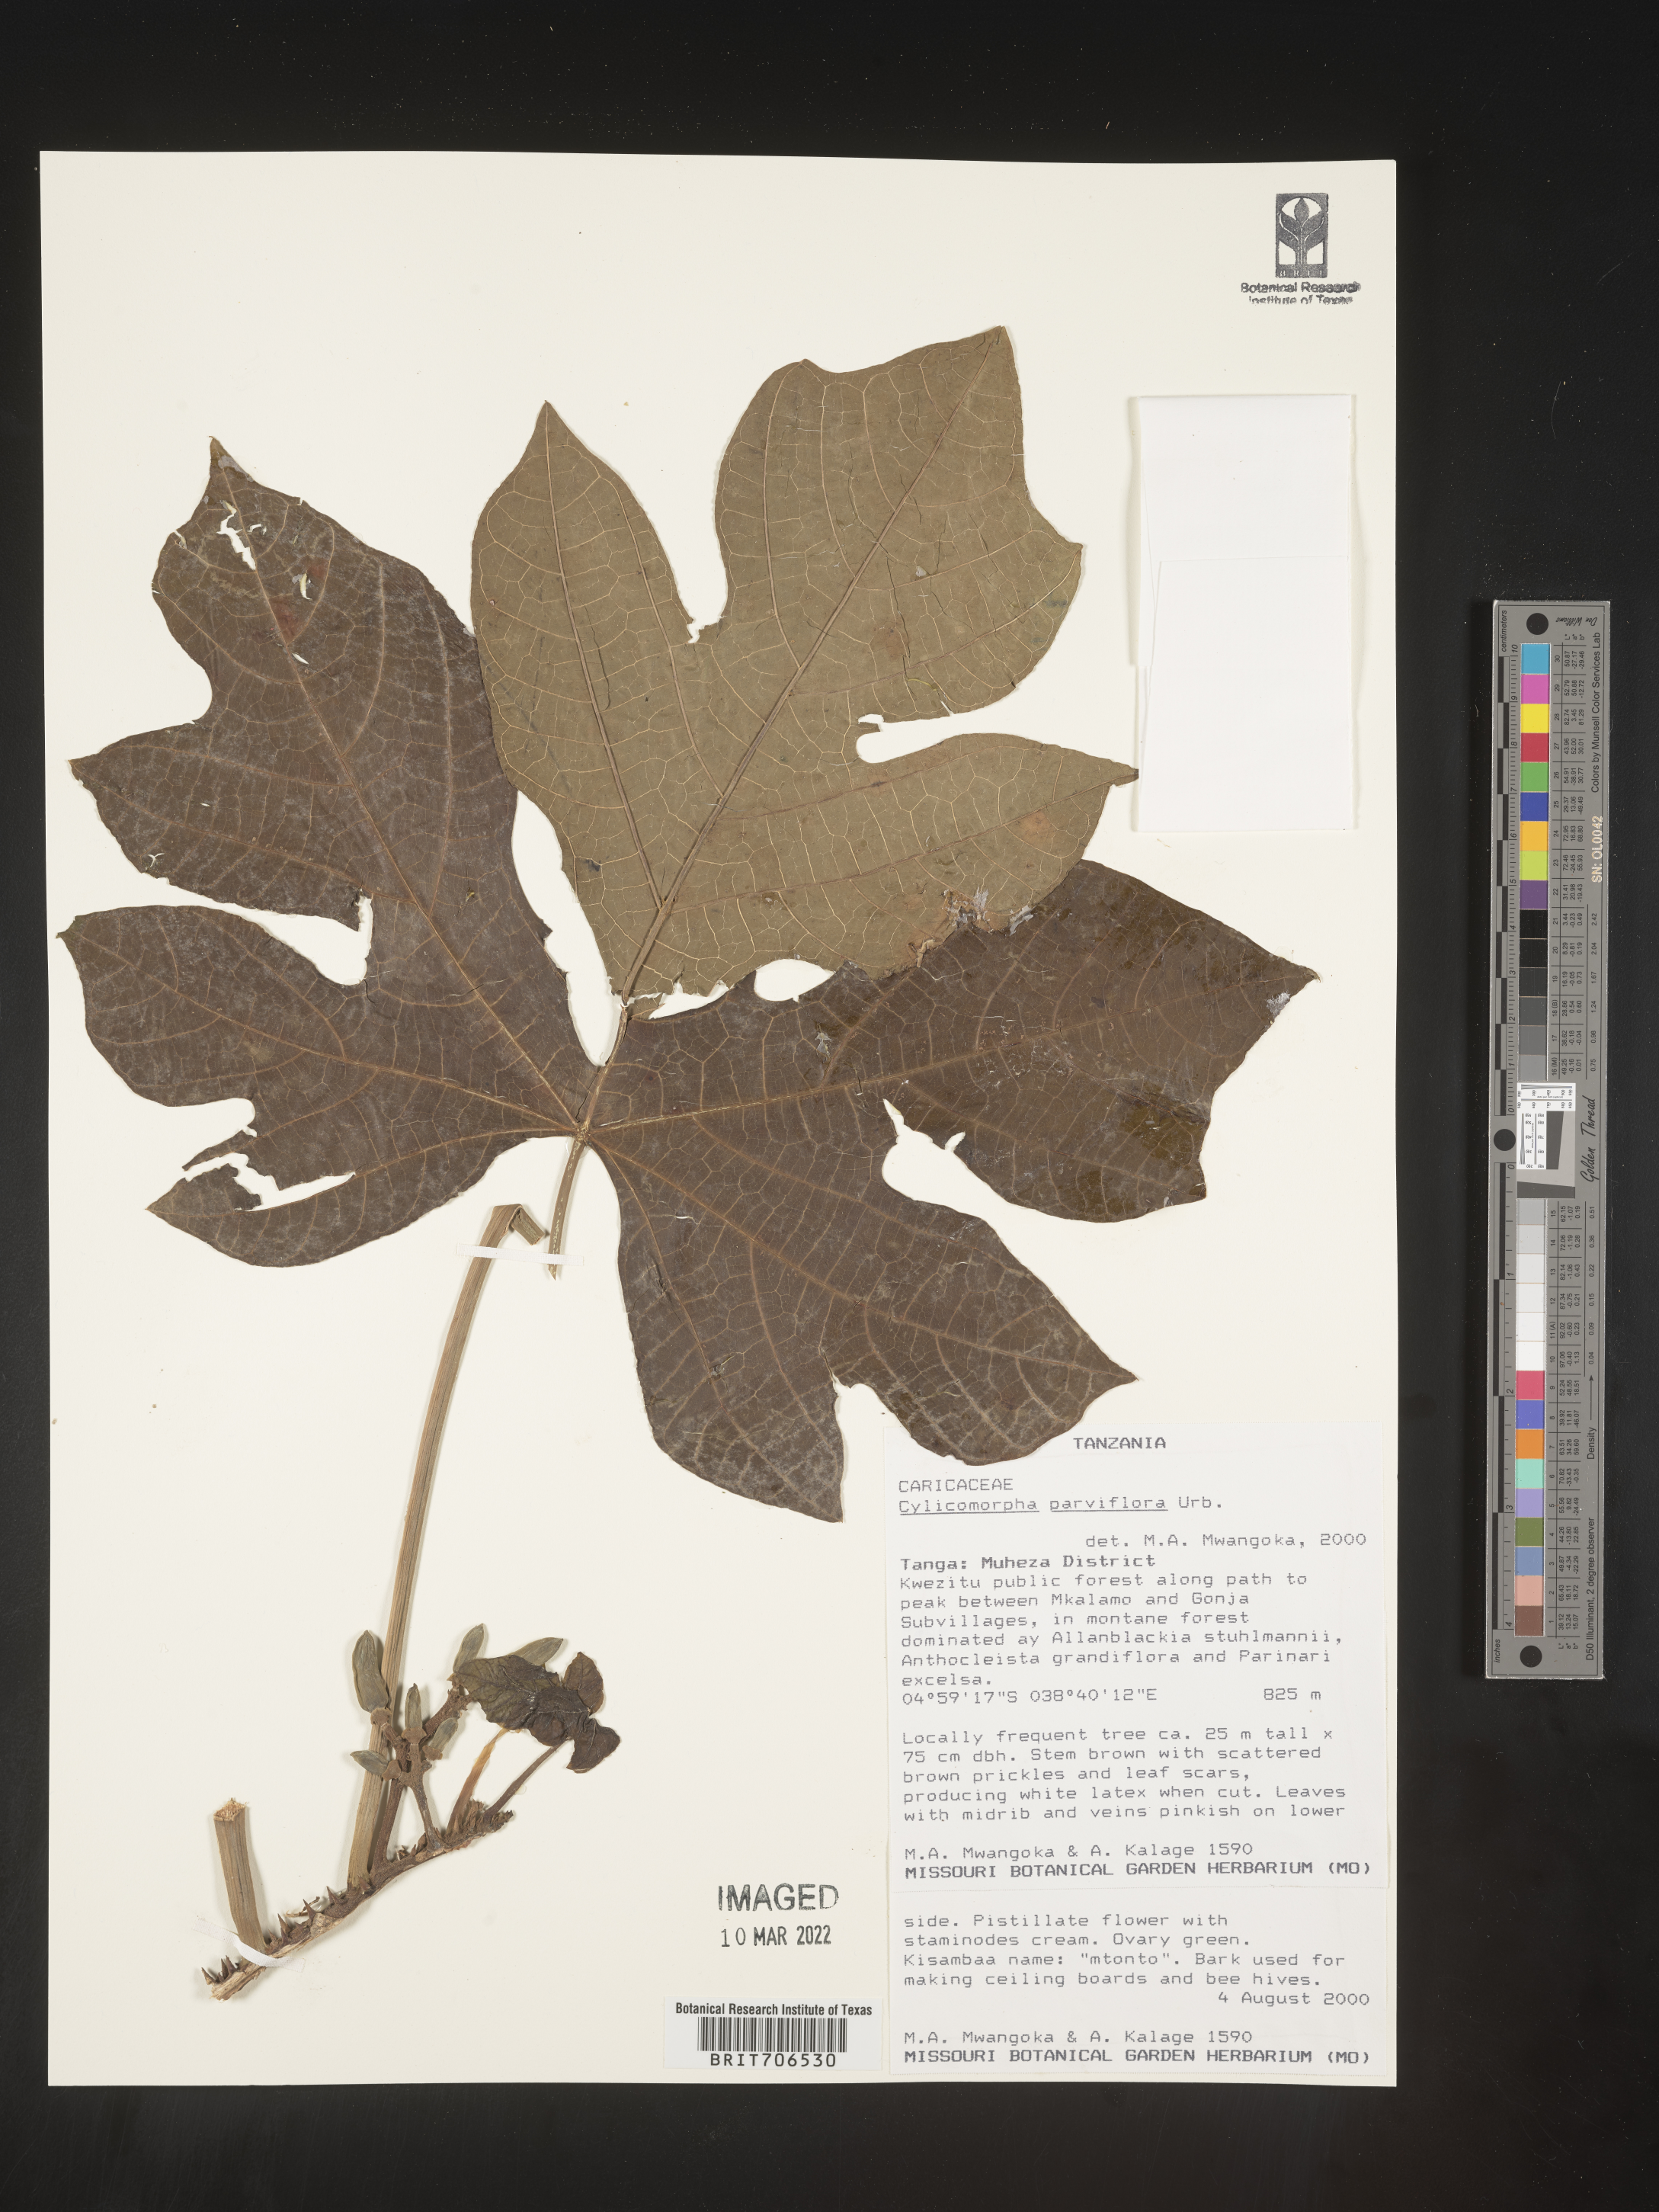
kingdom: Plantae
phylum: Tracheophyta
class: Magnoliopsida
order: Brassicales
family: Caricaceae
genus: Cylicomorpha
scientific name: Cylicomorpha
